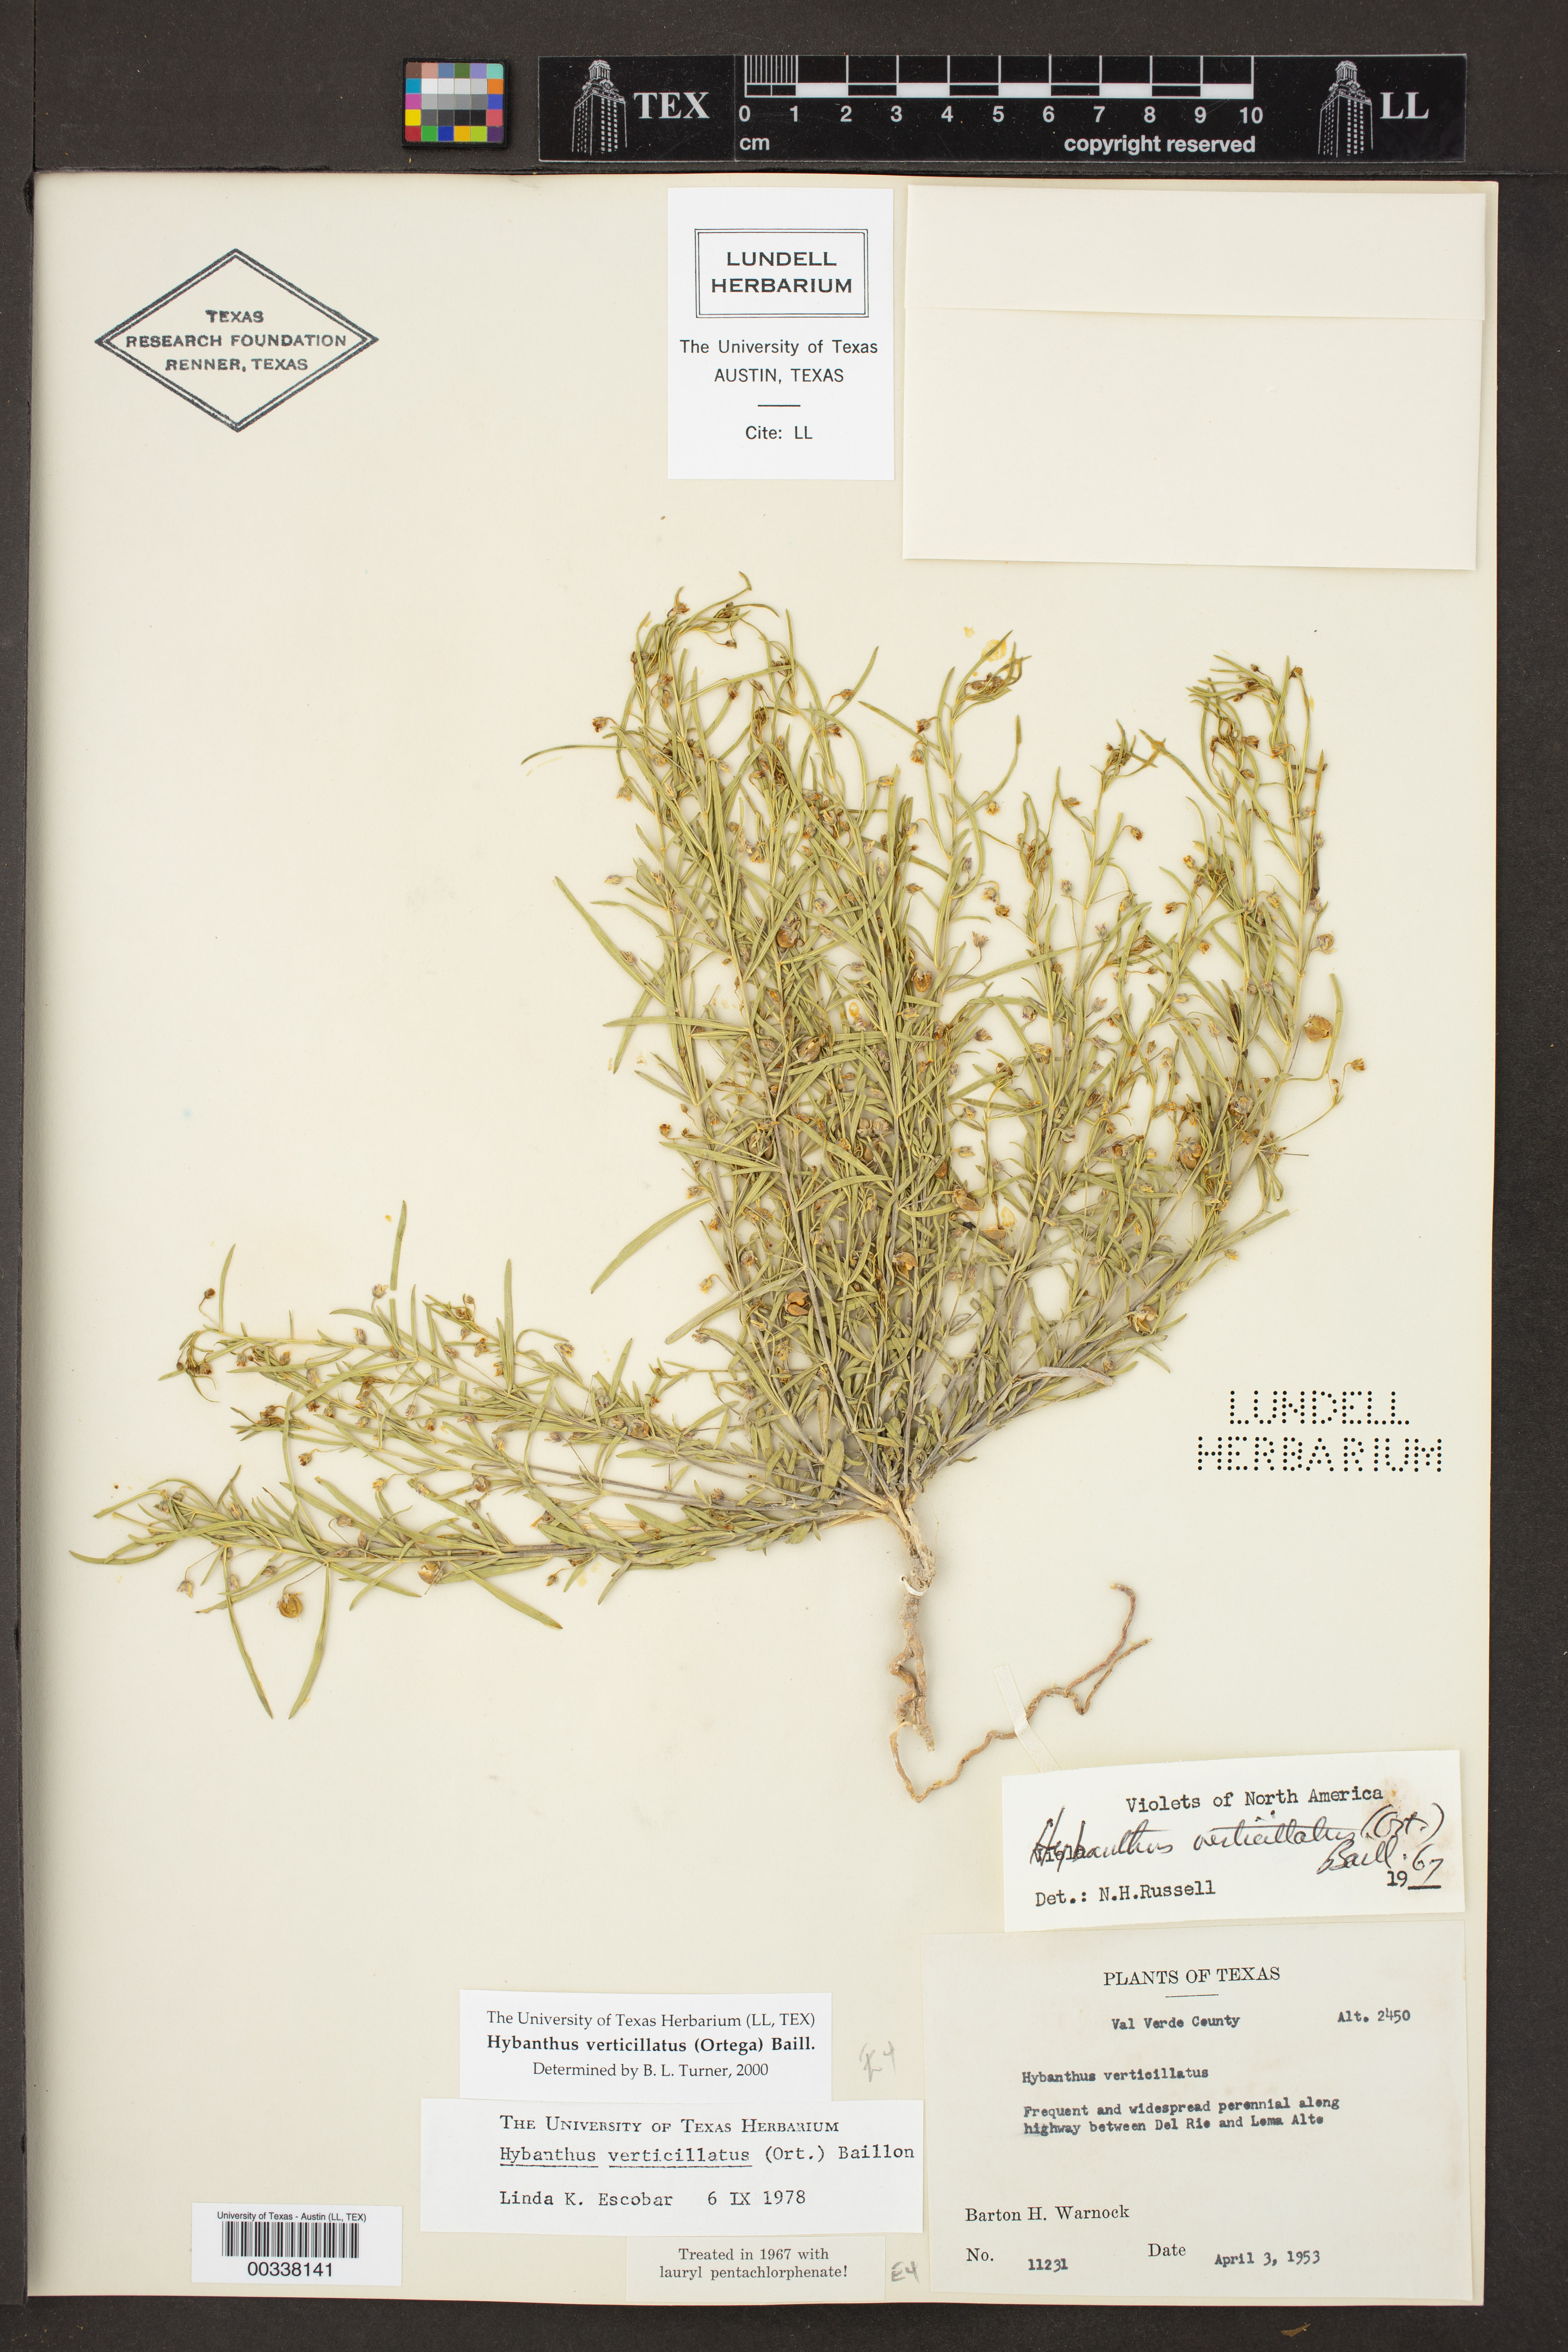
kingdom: Plantae
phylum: Tracheophyta
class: Magnoliopsida
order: Malpighiales
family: Violaceae
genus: Pombalia
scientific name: Pombalia verticillata
